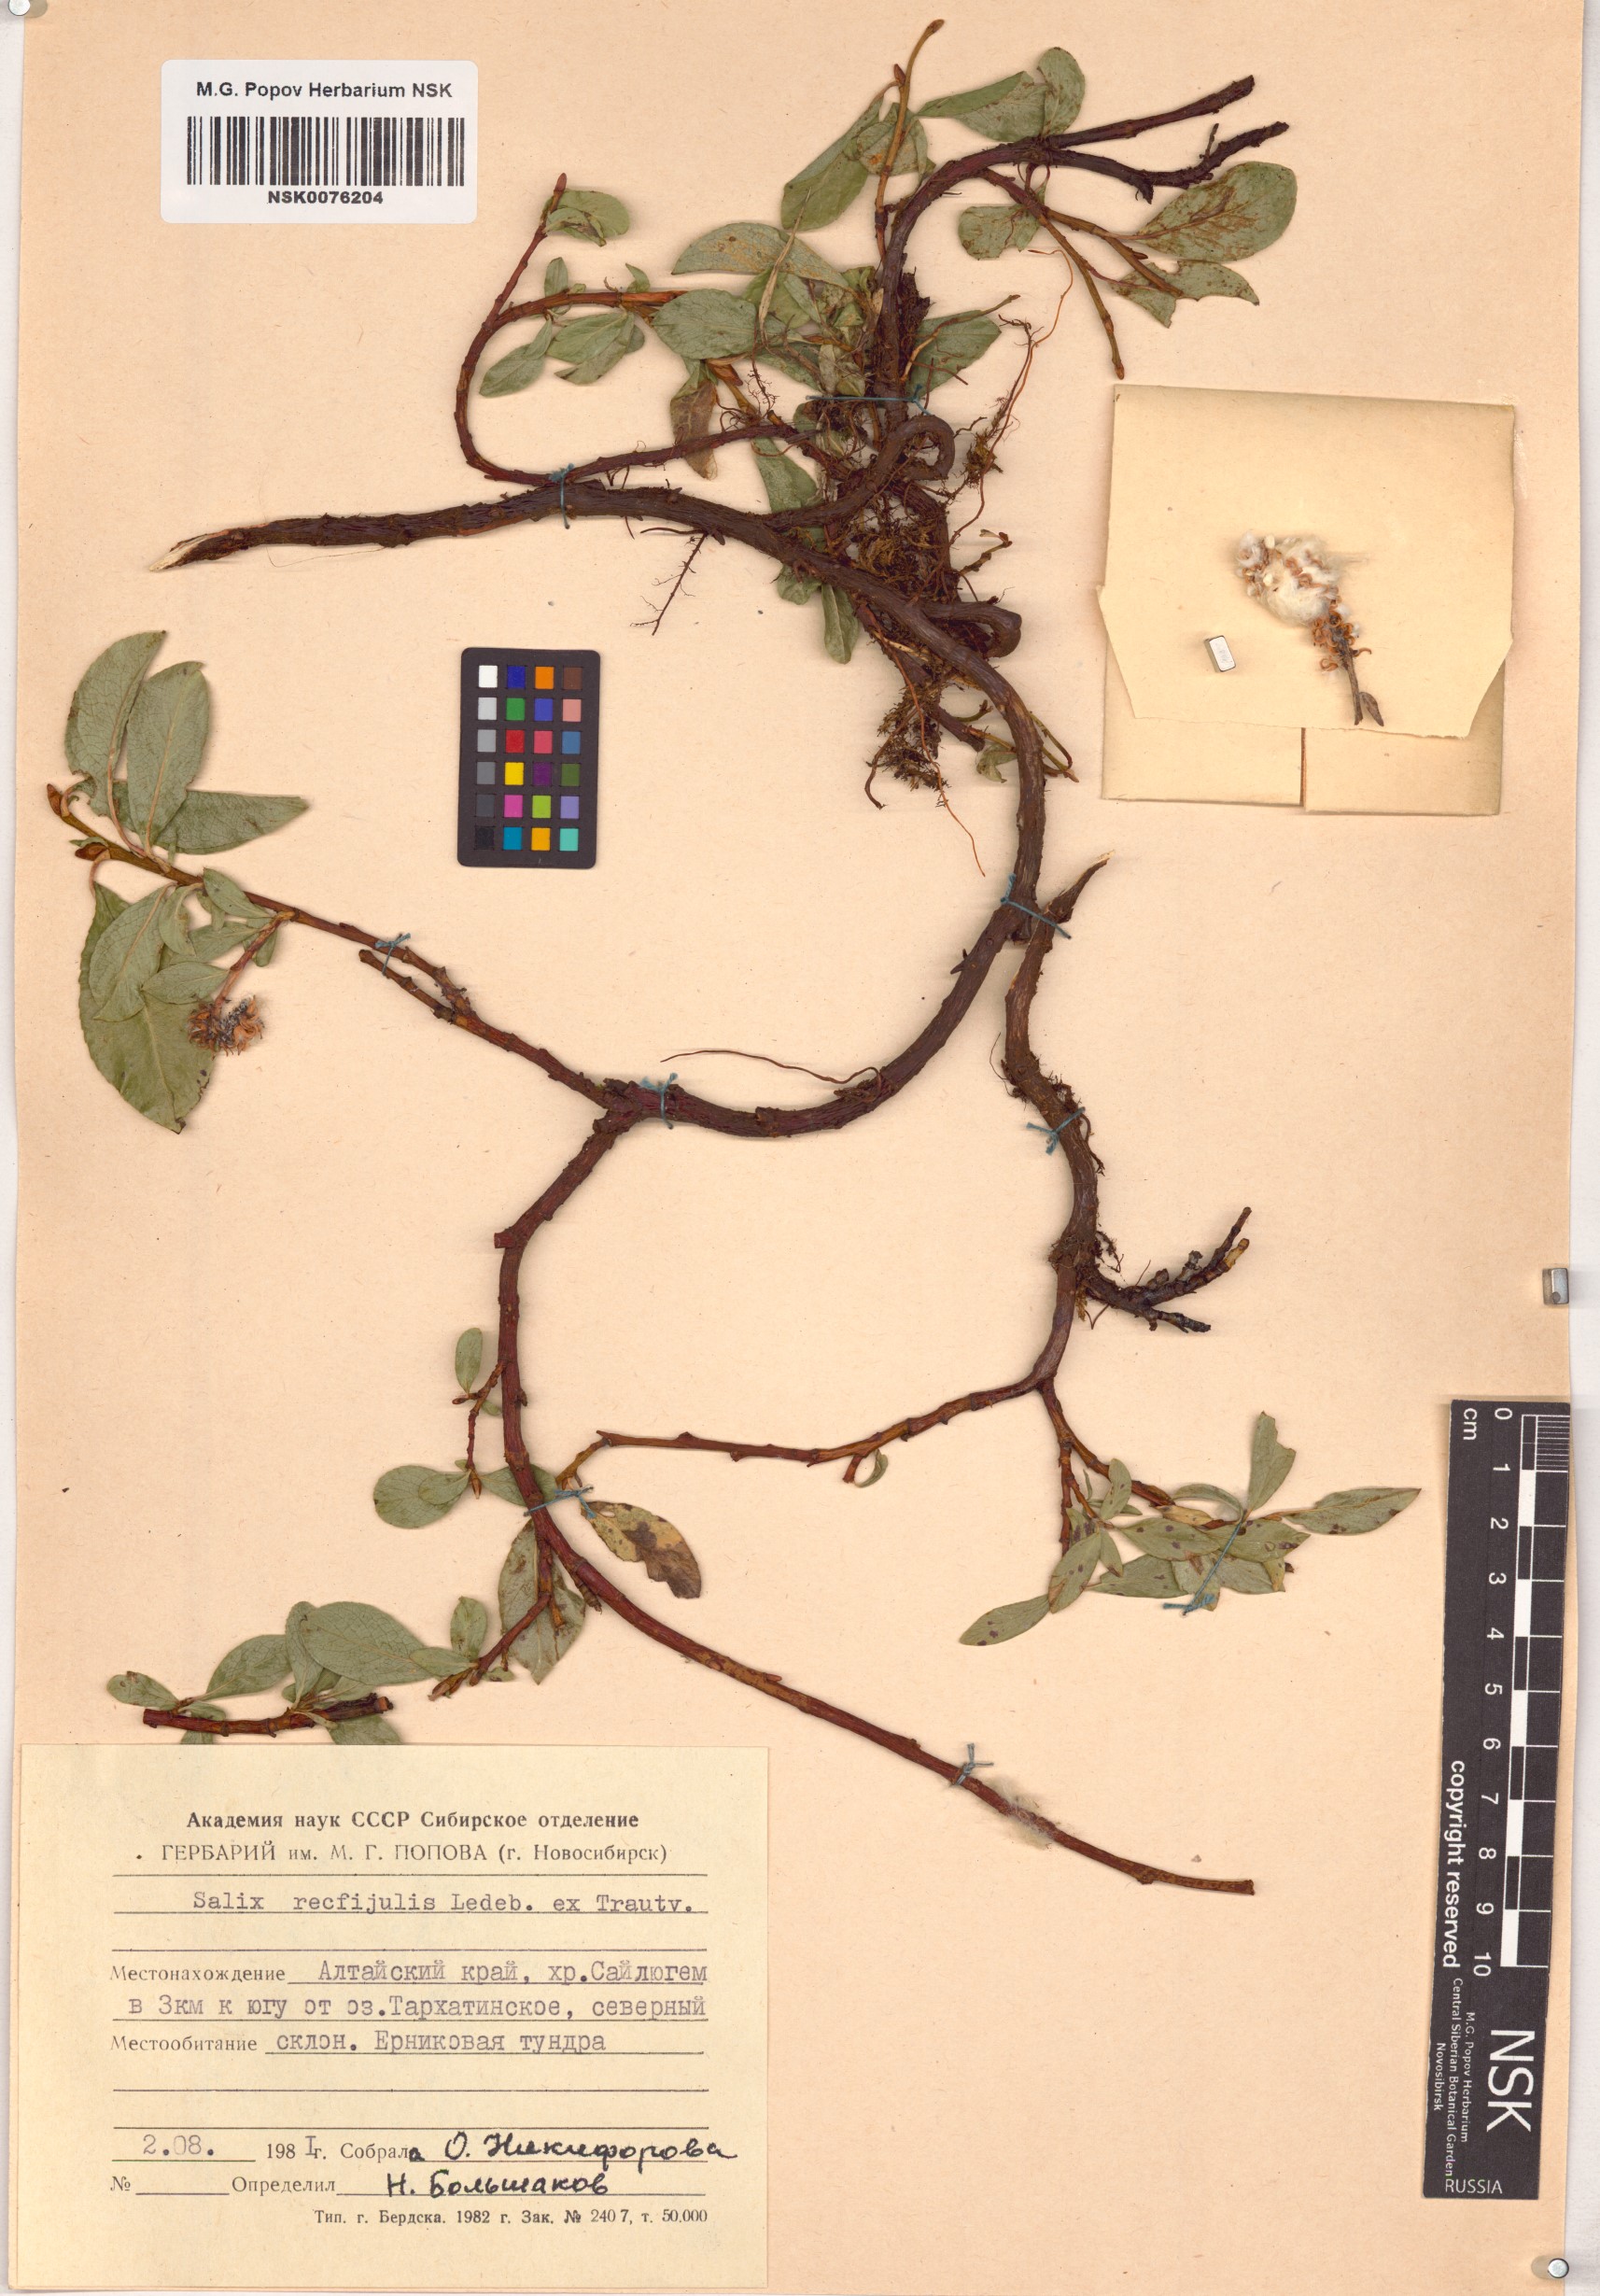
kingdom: Plantae
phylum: Tracheophyta
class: Magnoliopsida
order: Malpighiales
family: Salicaceae
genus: Salix
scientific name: Salix rectijulis
